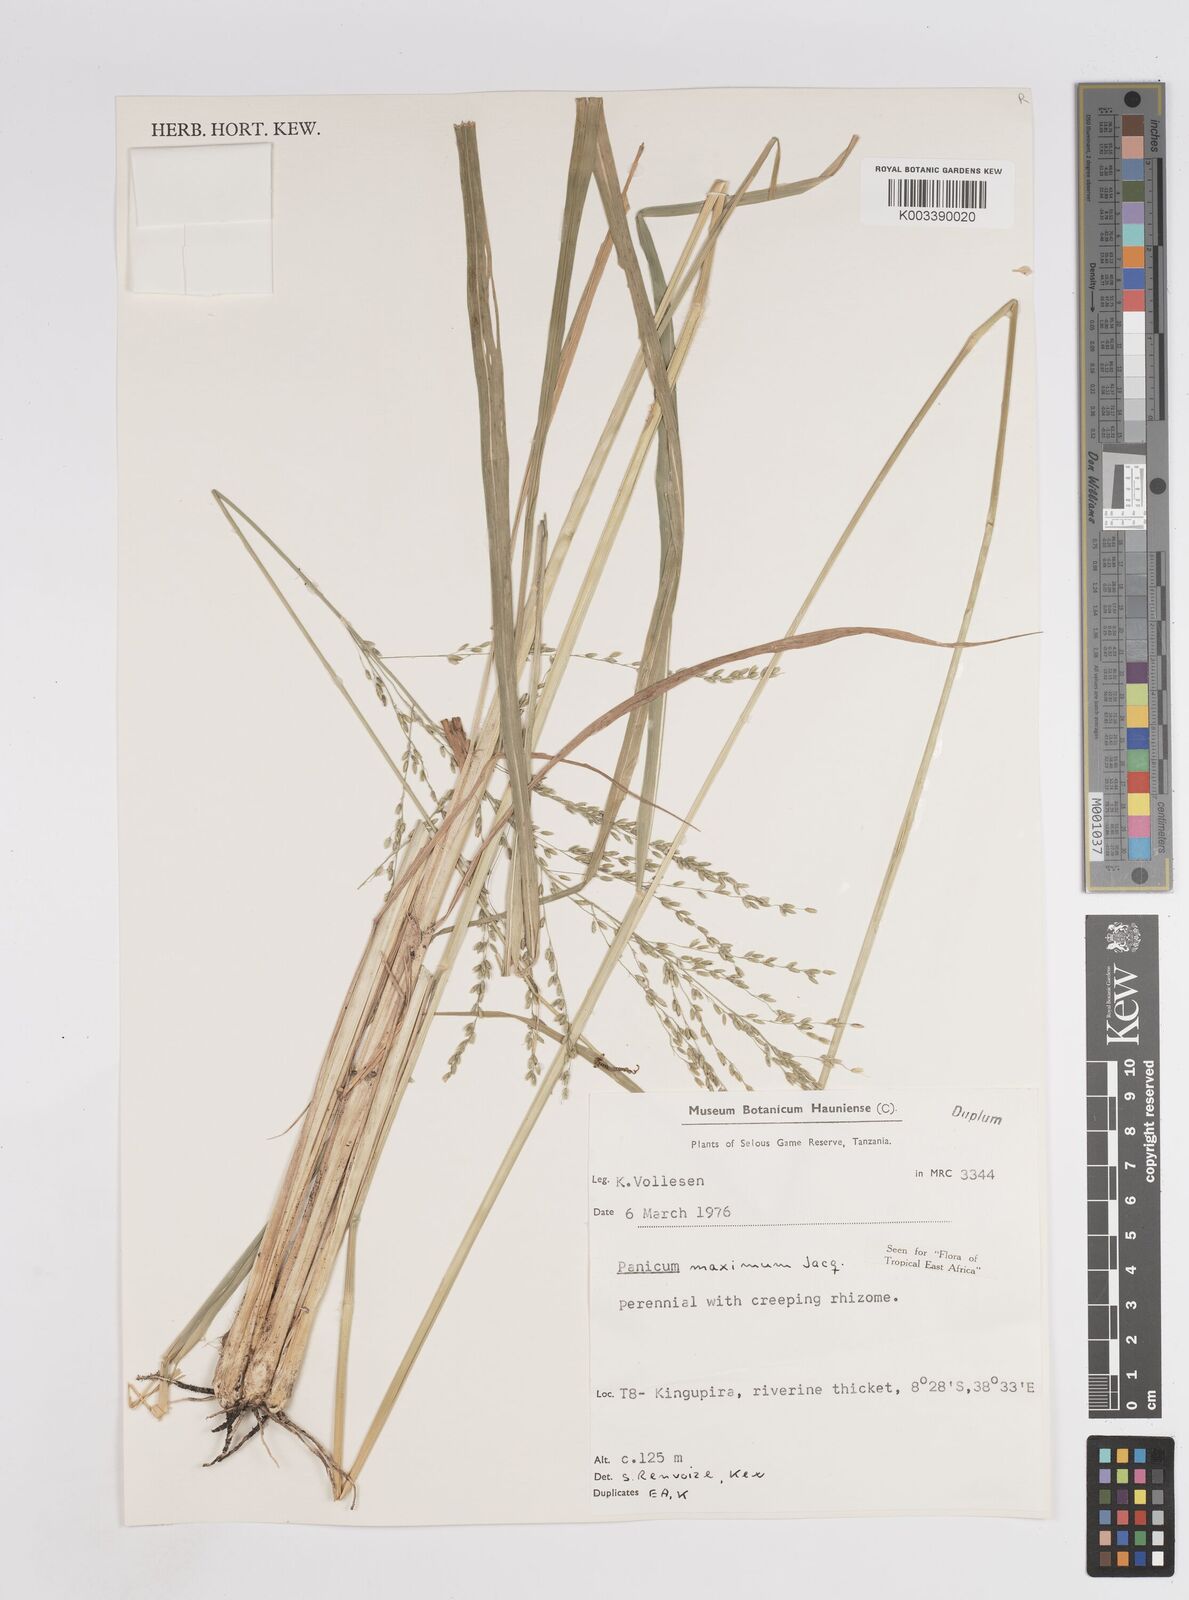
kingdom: Plantae
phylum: Tracheophyta
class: Liliopsida
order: Poales
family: Poaceae
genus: Megathyrsus
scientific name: Megathyrsus maximus
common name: Guineagrass
